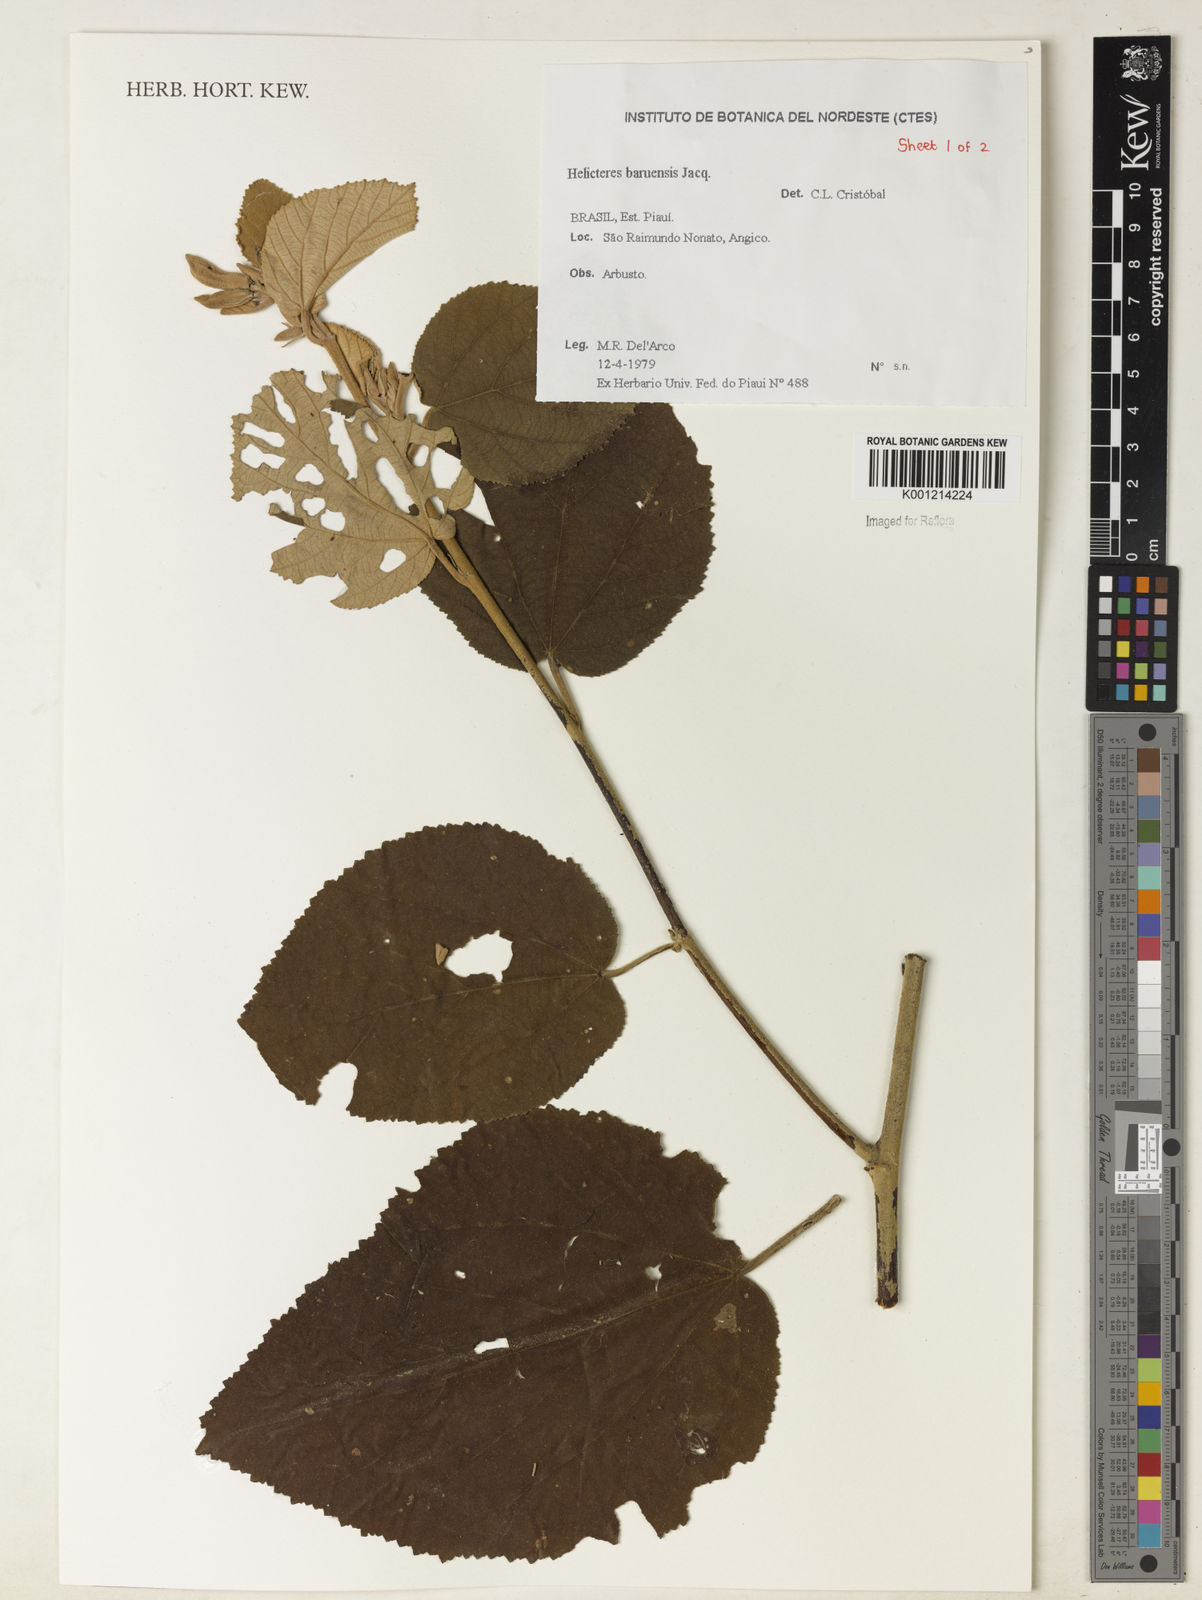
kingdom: Plantae
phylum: Tracheophyta
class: Magnoliopsida
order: Malvales
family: Malvaceae
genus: Helicteres
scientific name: Helicteres baruensis
